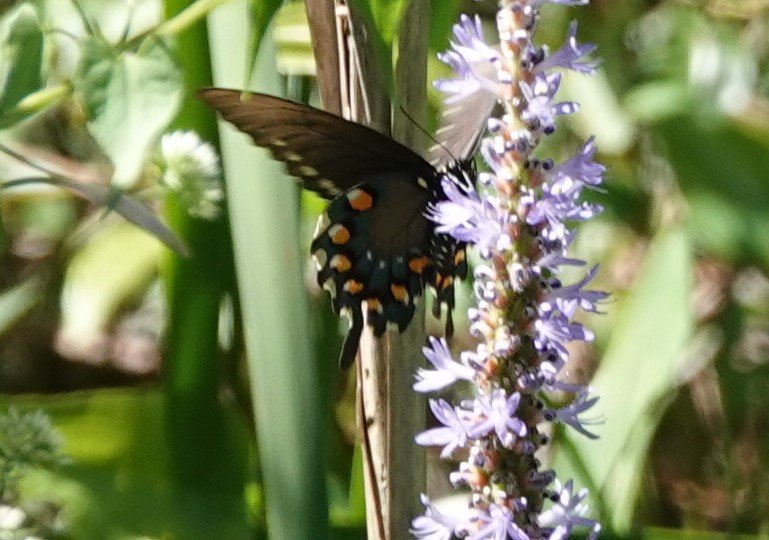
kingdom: Animalia
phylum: Arthropoda
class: Insecta
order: Lepidoptera
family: Papilionidae
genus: Battus
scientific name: Battus philenor
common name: Pipevine Swallowtail
